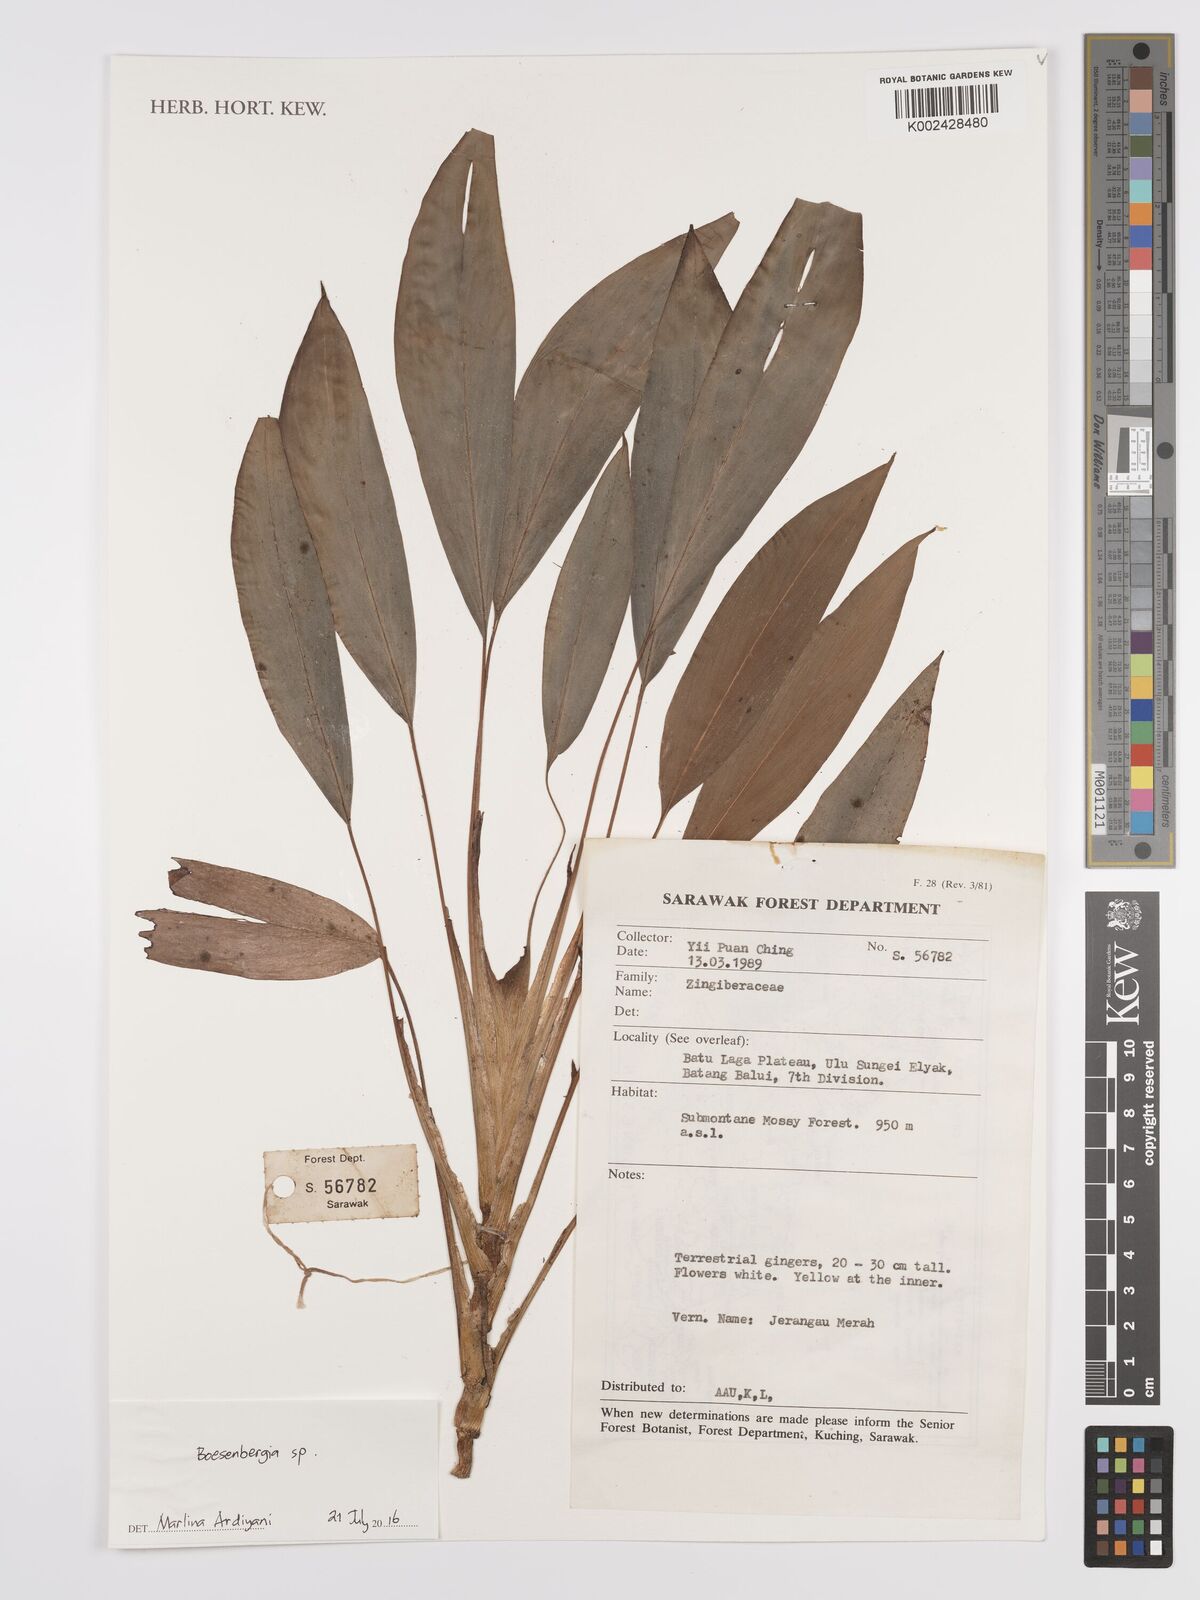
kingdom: Plantae
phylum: Tracheophyta
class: Liliopsida
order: Zingiberales
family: Zingiberaceae
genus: Boesenbergia
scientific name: Boesenbergia
